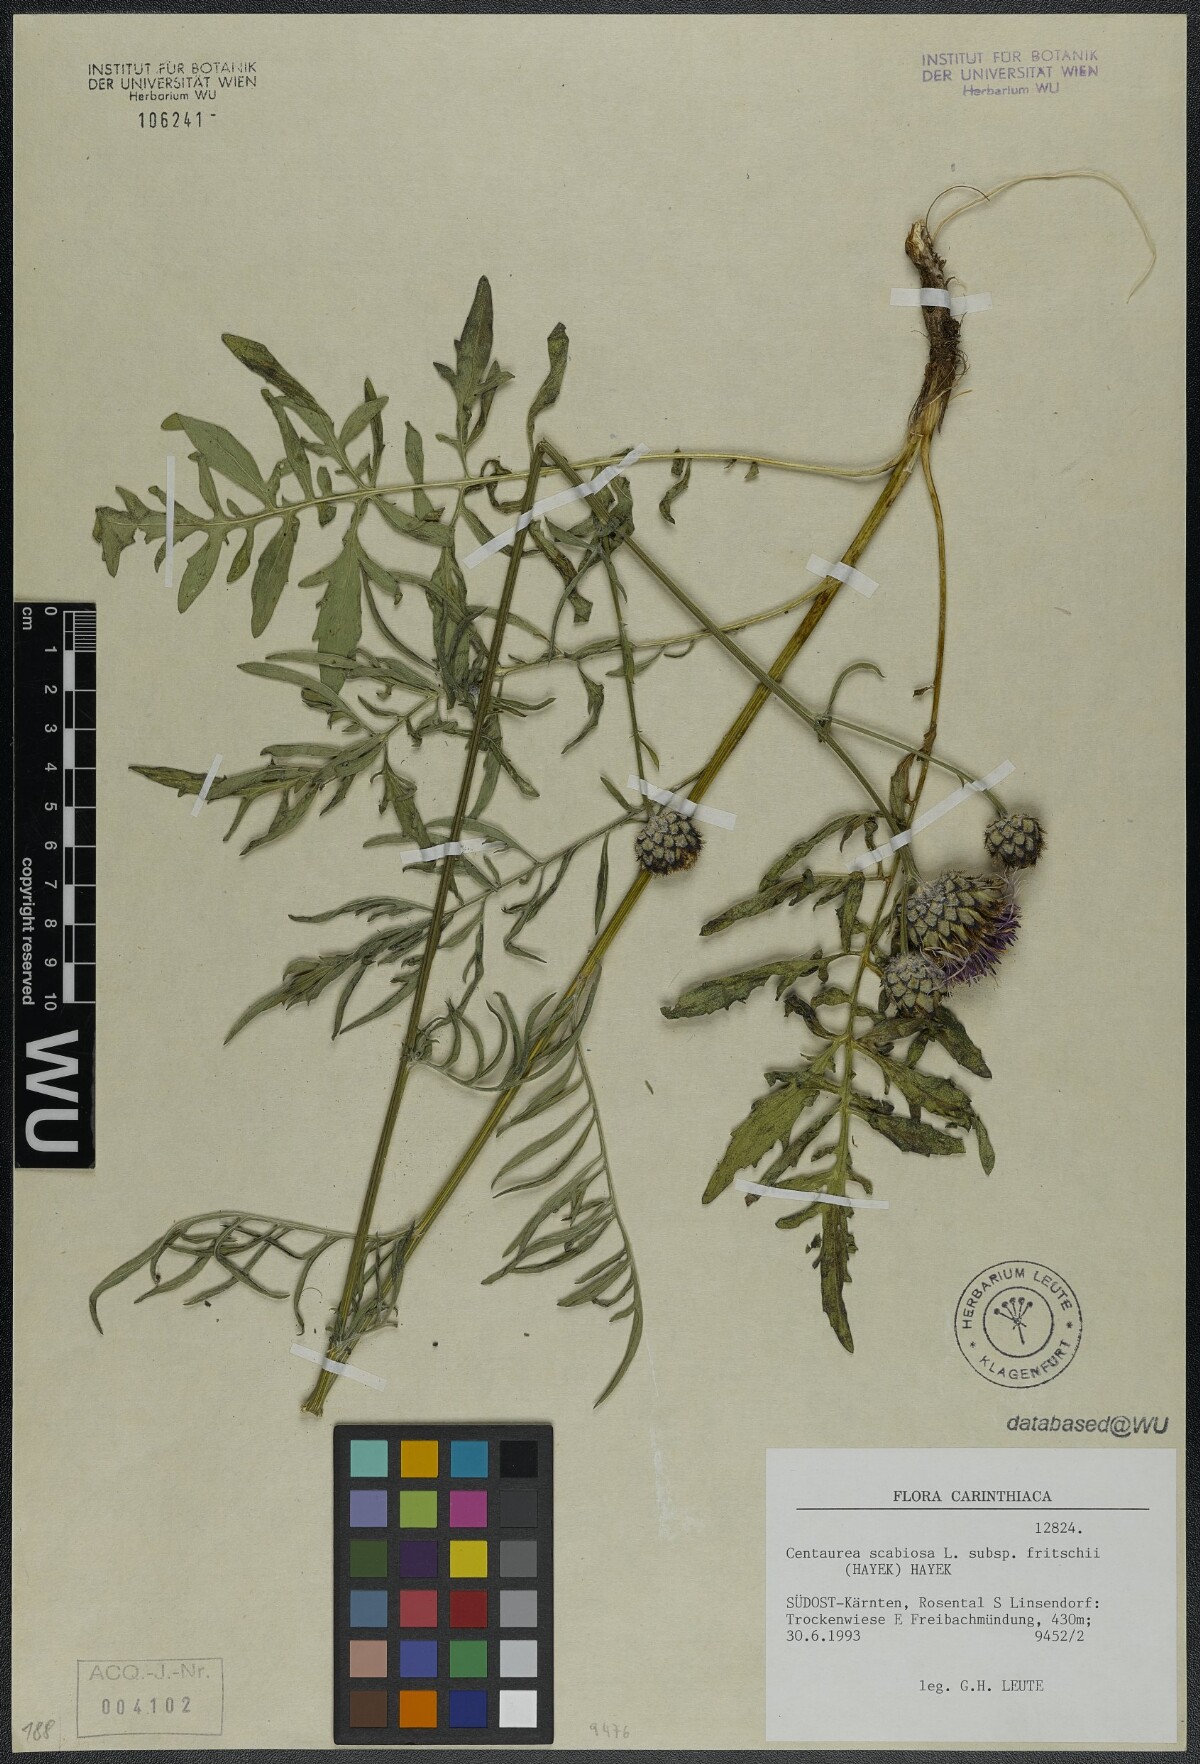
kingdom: Plantae
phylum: Tracheophyta
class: Magnoliopsida
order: Asterales
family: Asteraceae
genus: Centaurea
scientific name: Centaurea scabiosa
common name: Greater knapweed
